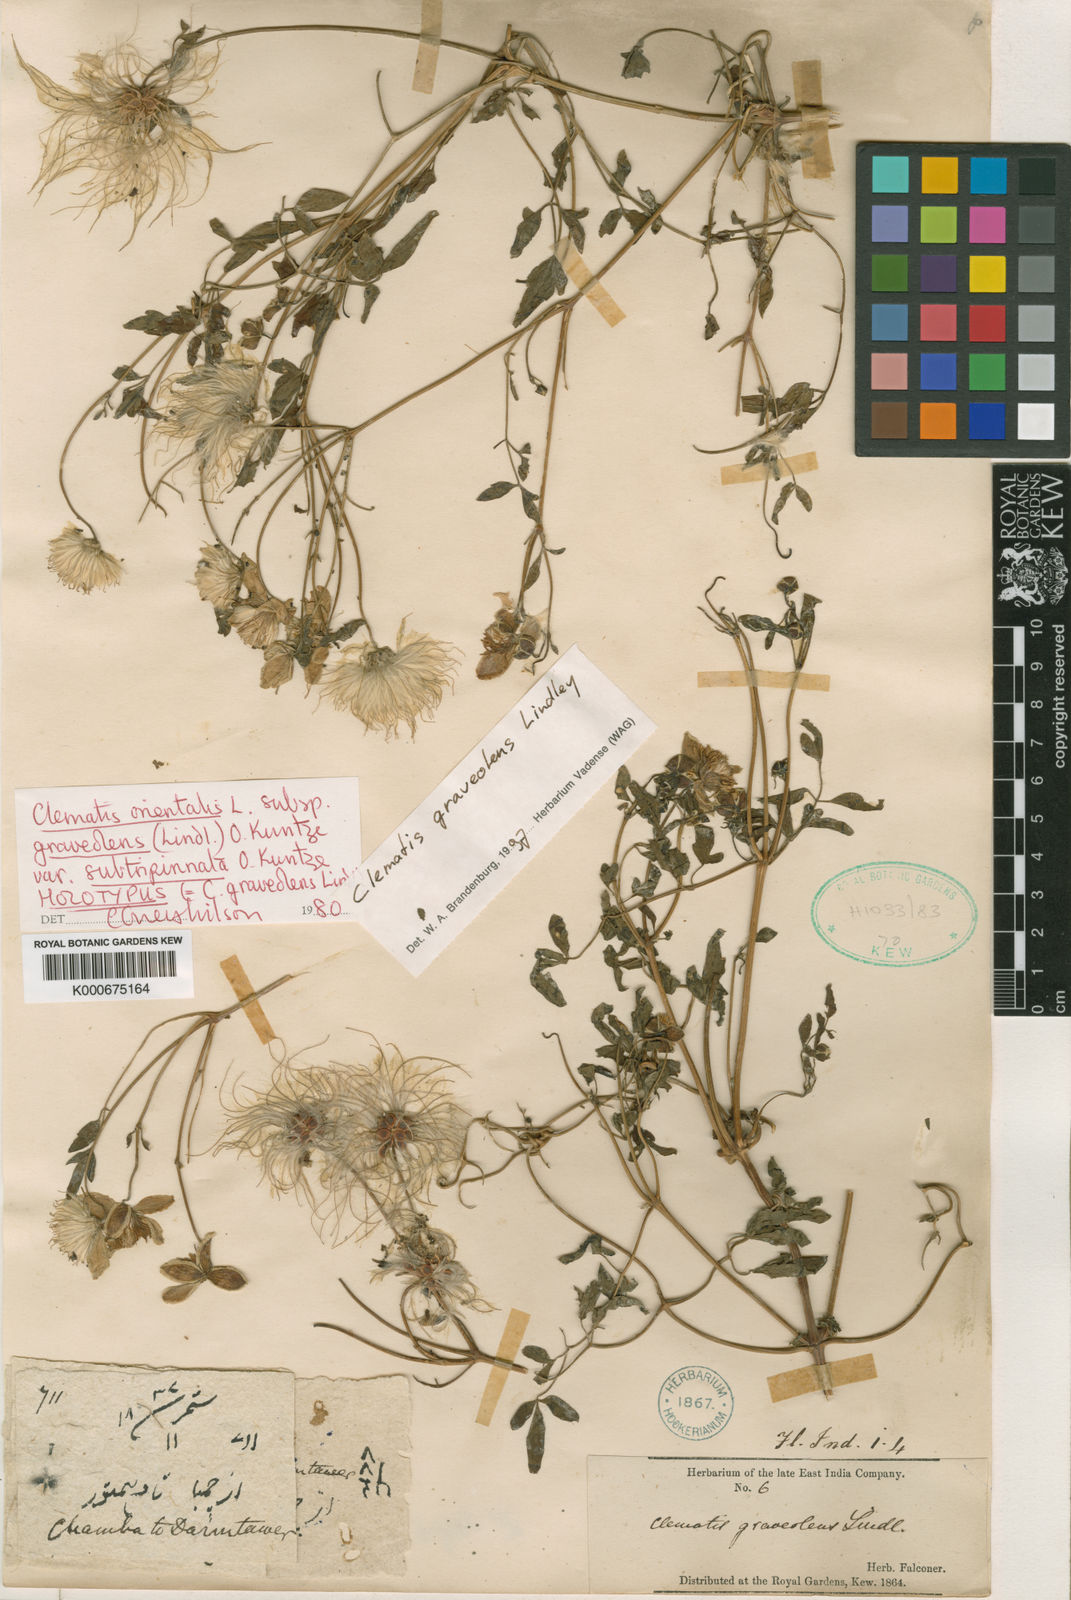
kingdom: Plantae
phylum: Tracheophyta
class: Magnoliopsida
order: Ranunculales
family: Ranunculaceae
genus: Clematis
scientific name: Clematis graveolens
